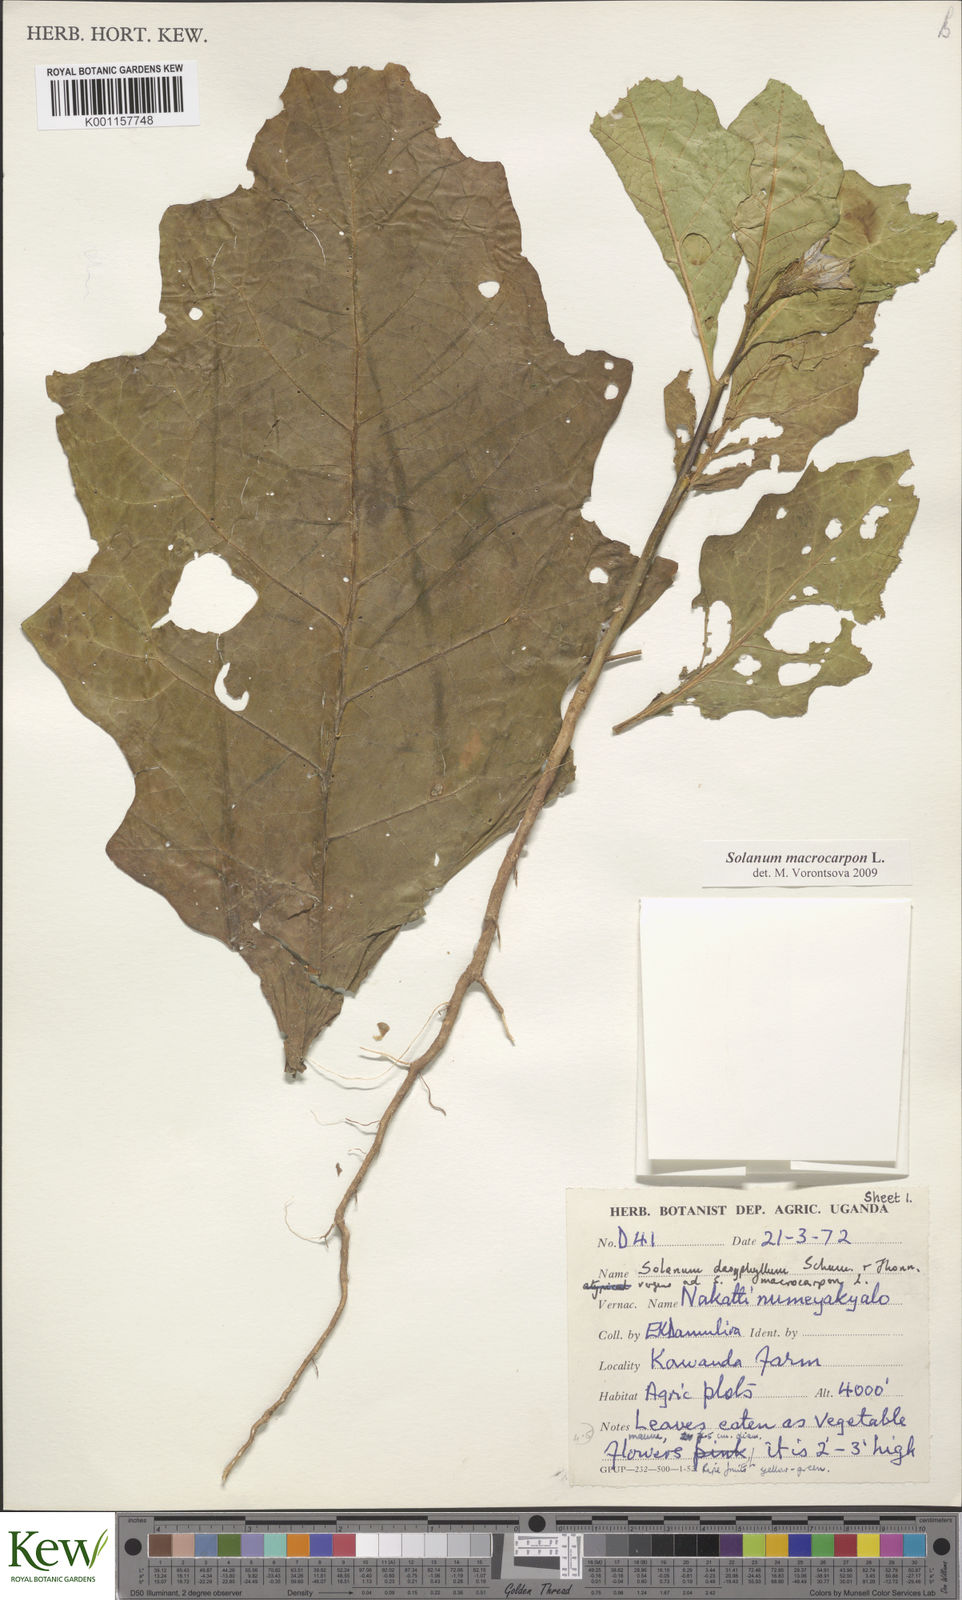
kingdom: Plantae
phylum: Tracheophyta
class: Magnoliopsida
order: Solanales
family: Solanaceae
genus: Solanum
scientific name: Solanum macrocarpon
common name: African eggplant
